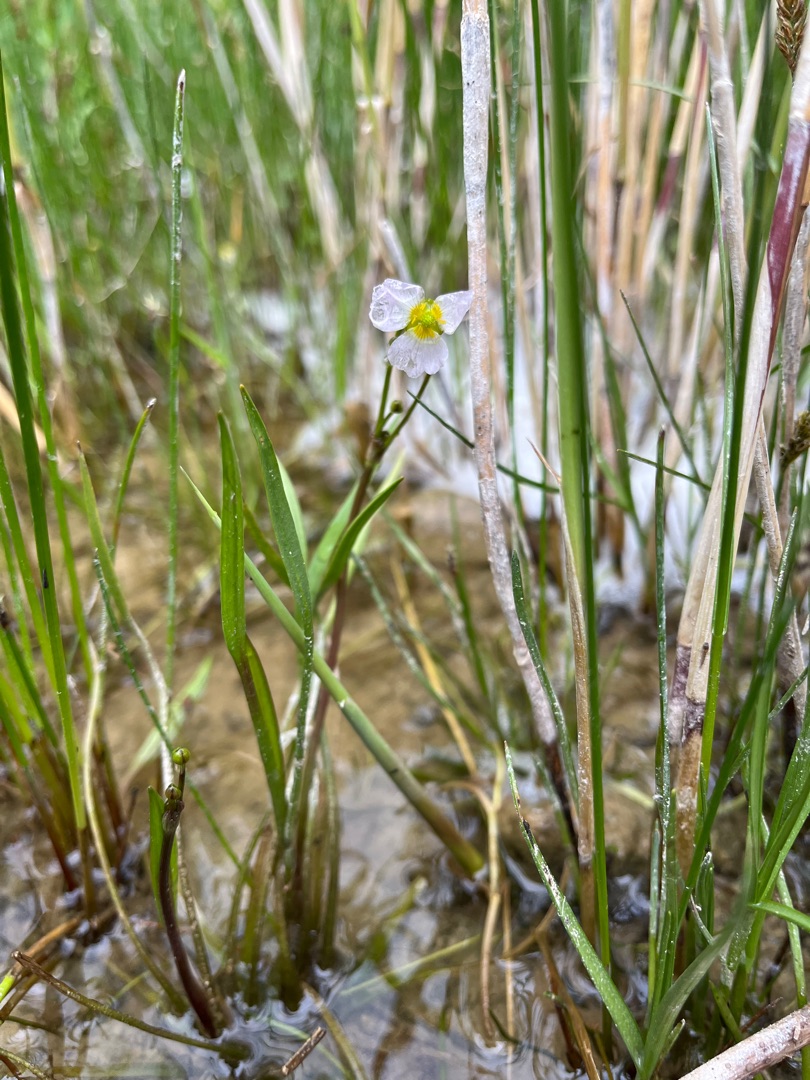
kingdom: Plantae
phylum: Tracheophyta
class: Liliopsida
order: Alismatales
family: Alismataceae
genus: Baldellia
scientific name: Baldellia ranunculoides
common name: Søpryd
